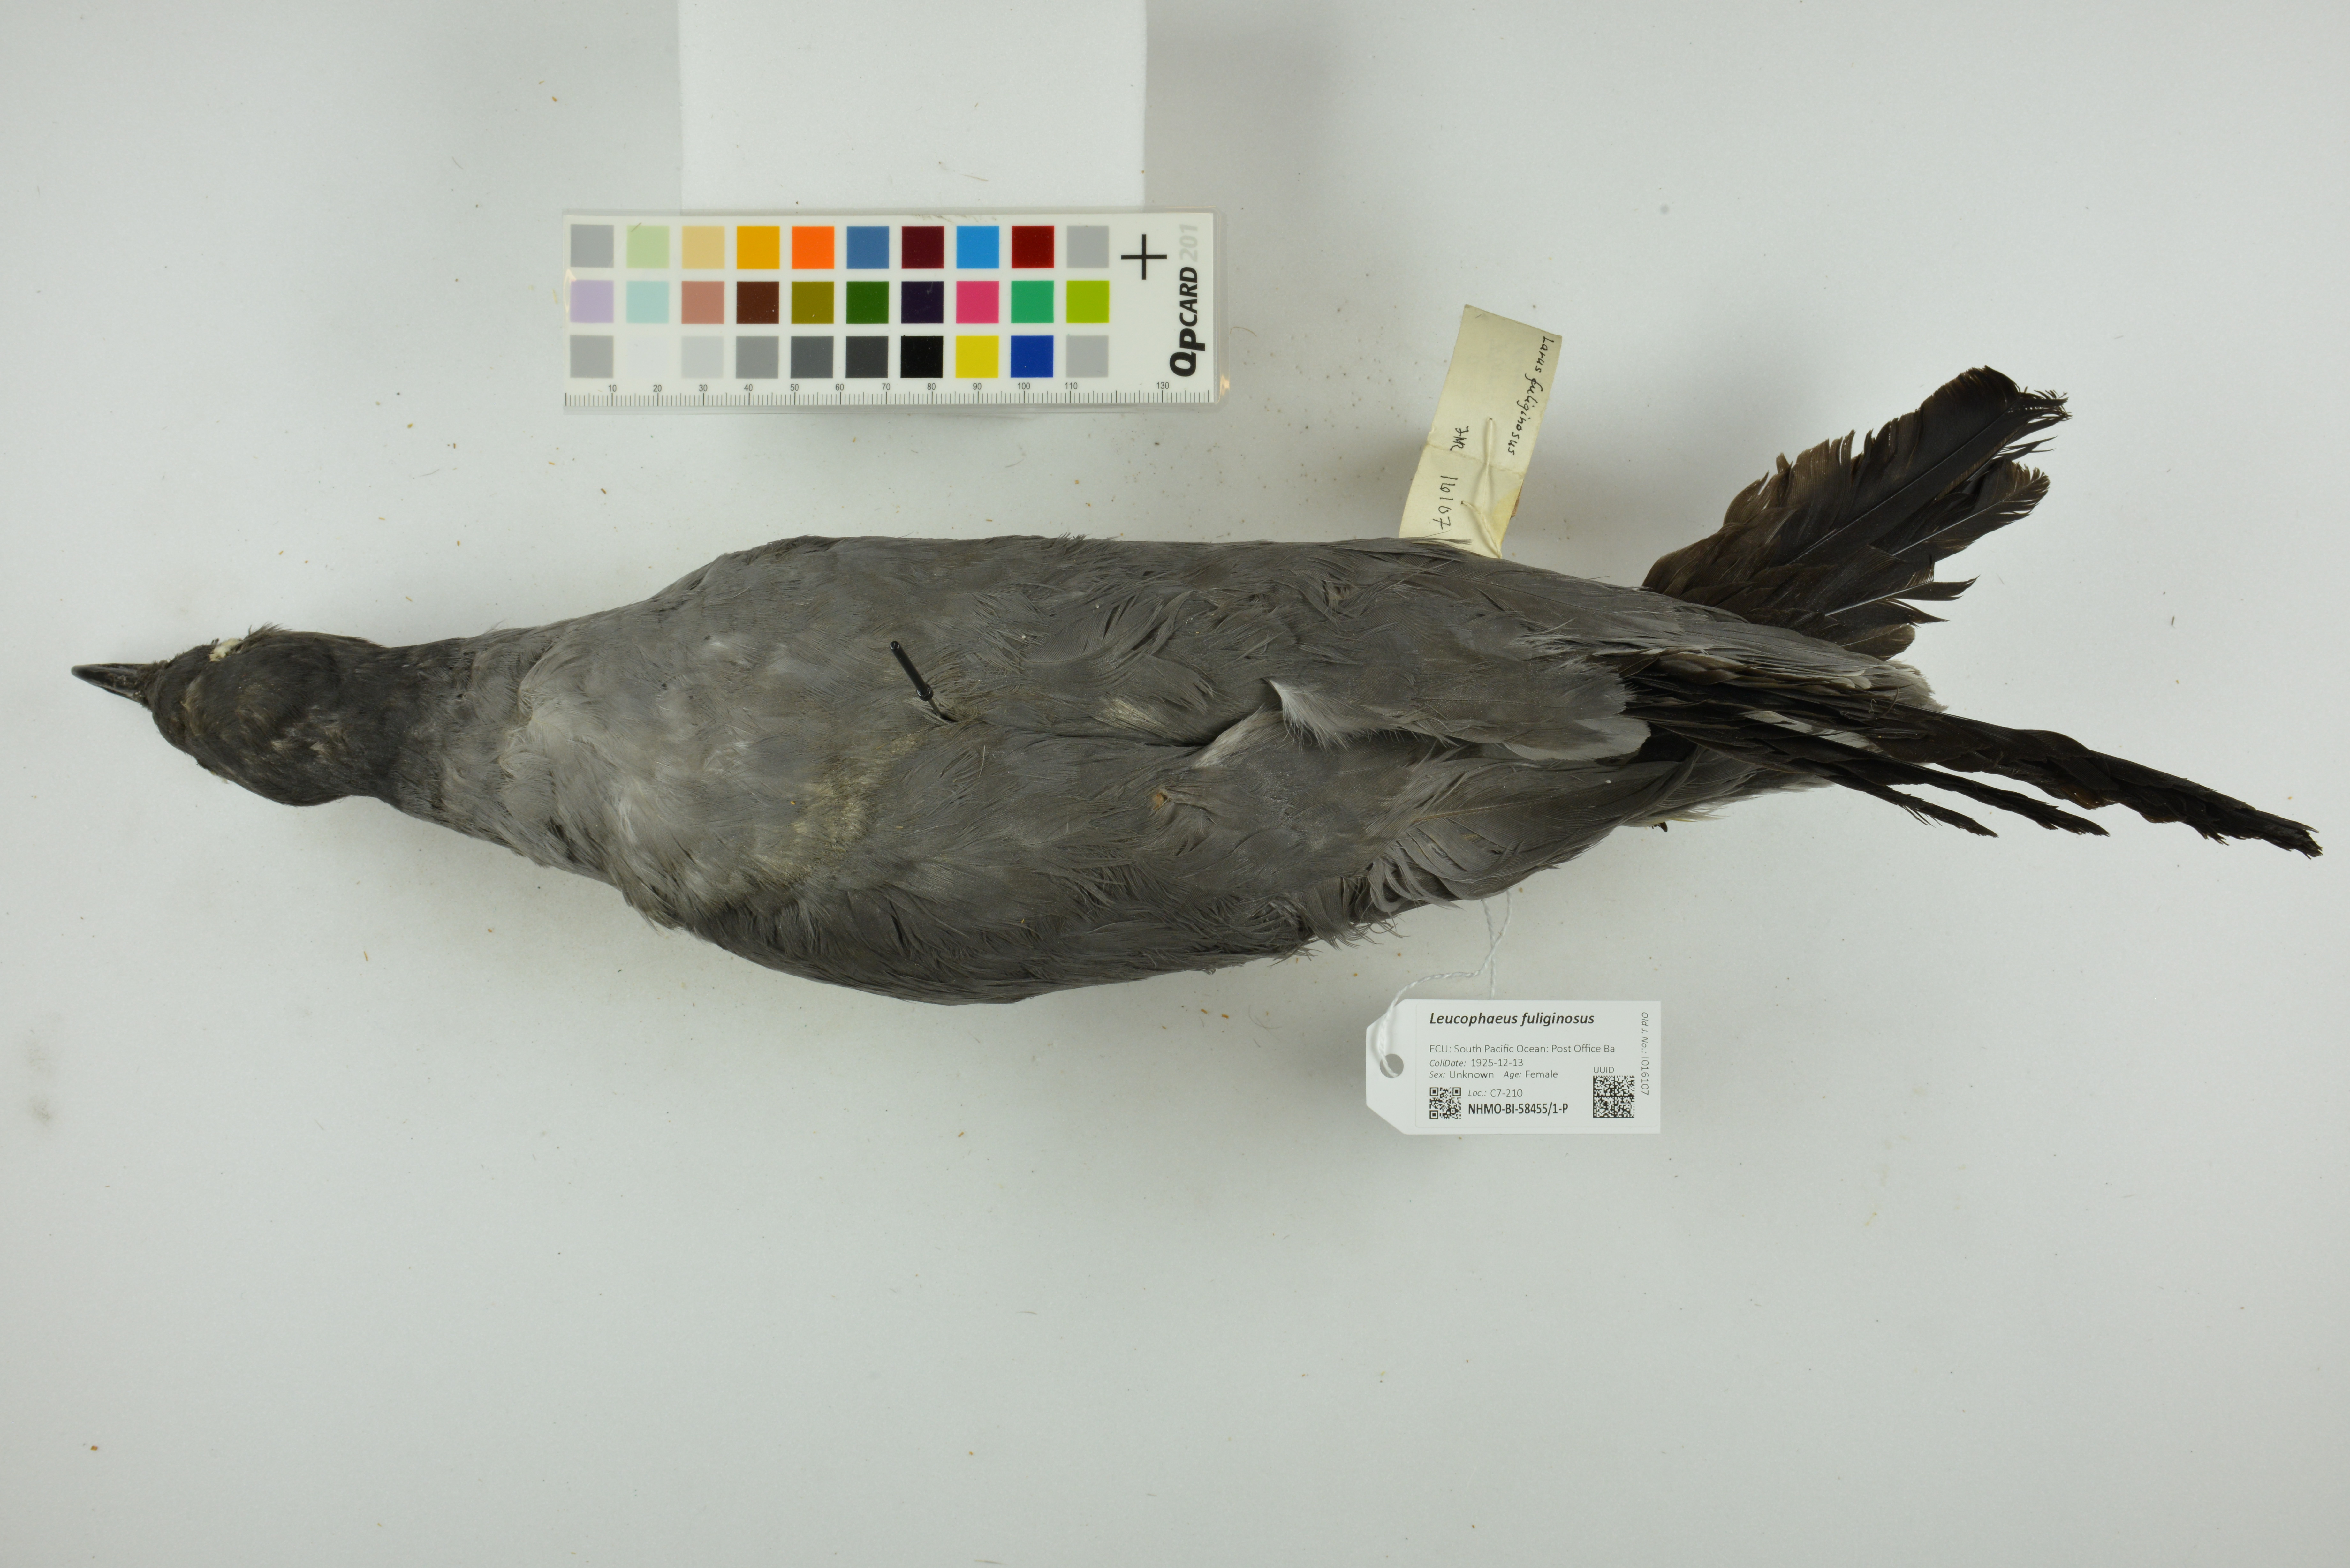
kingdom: Animalia
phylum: Chordata
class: Aves
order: Charadriiformes
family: Laridae
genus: Leucophaeus
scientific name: Leucophaeus fuliginosus
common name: Lava gull
